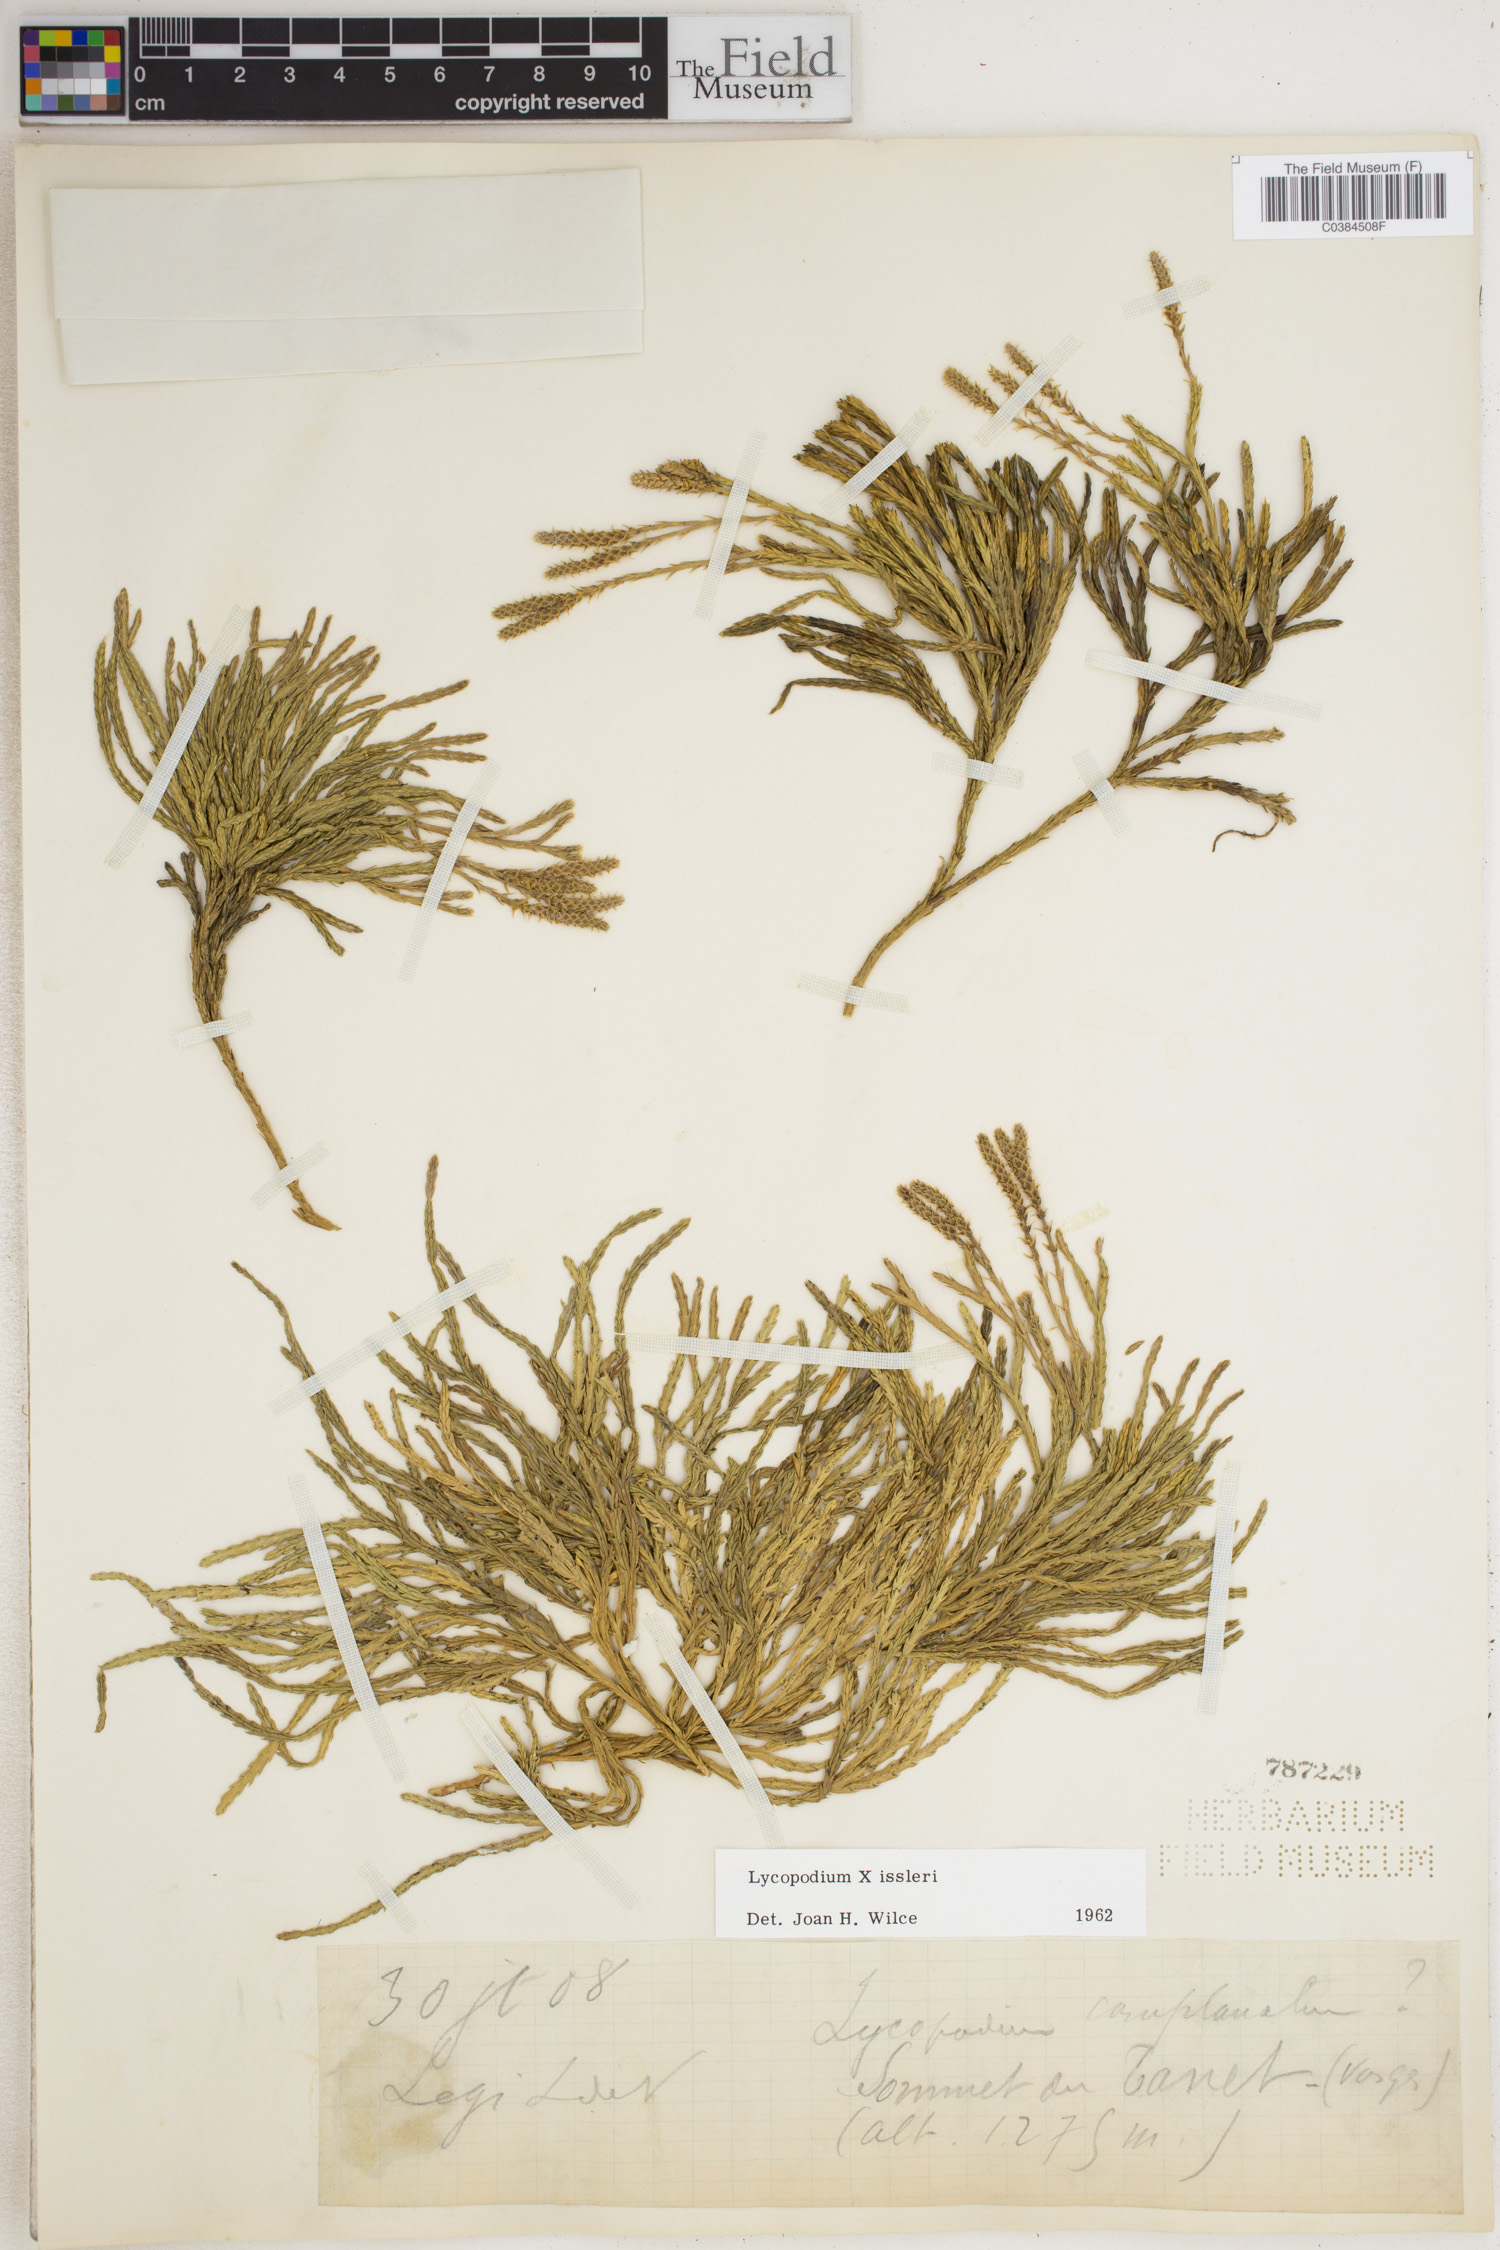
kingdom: Plantae
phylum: Tracheophyta
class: Lycopodiopsida
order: Lycopodiales
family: Lycopodiaceae
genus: Lycopodium
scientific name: Lycopodium
